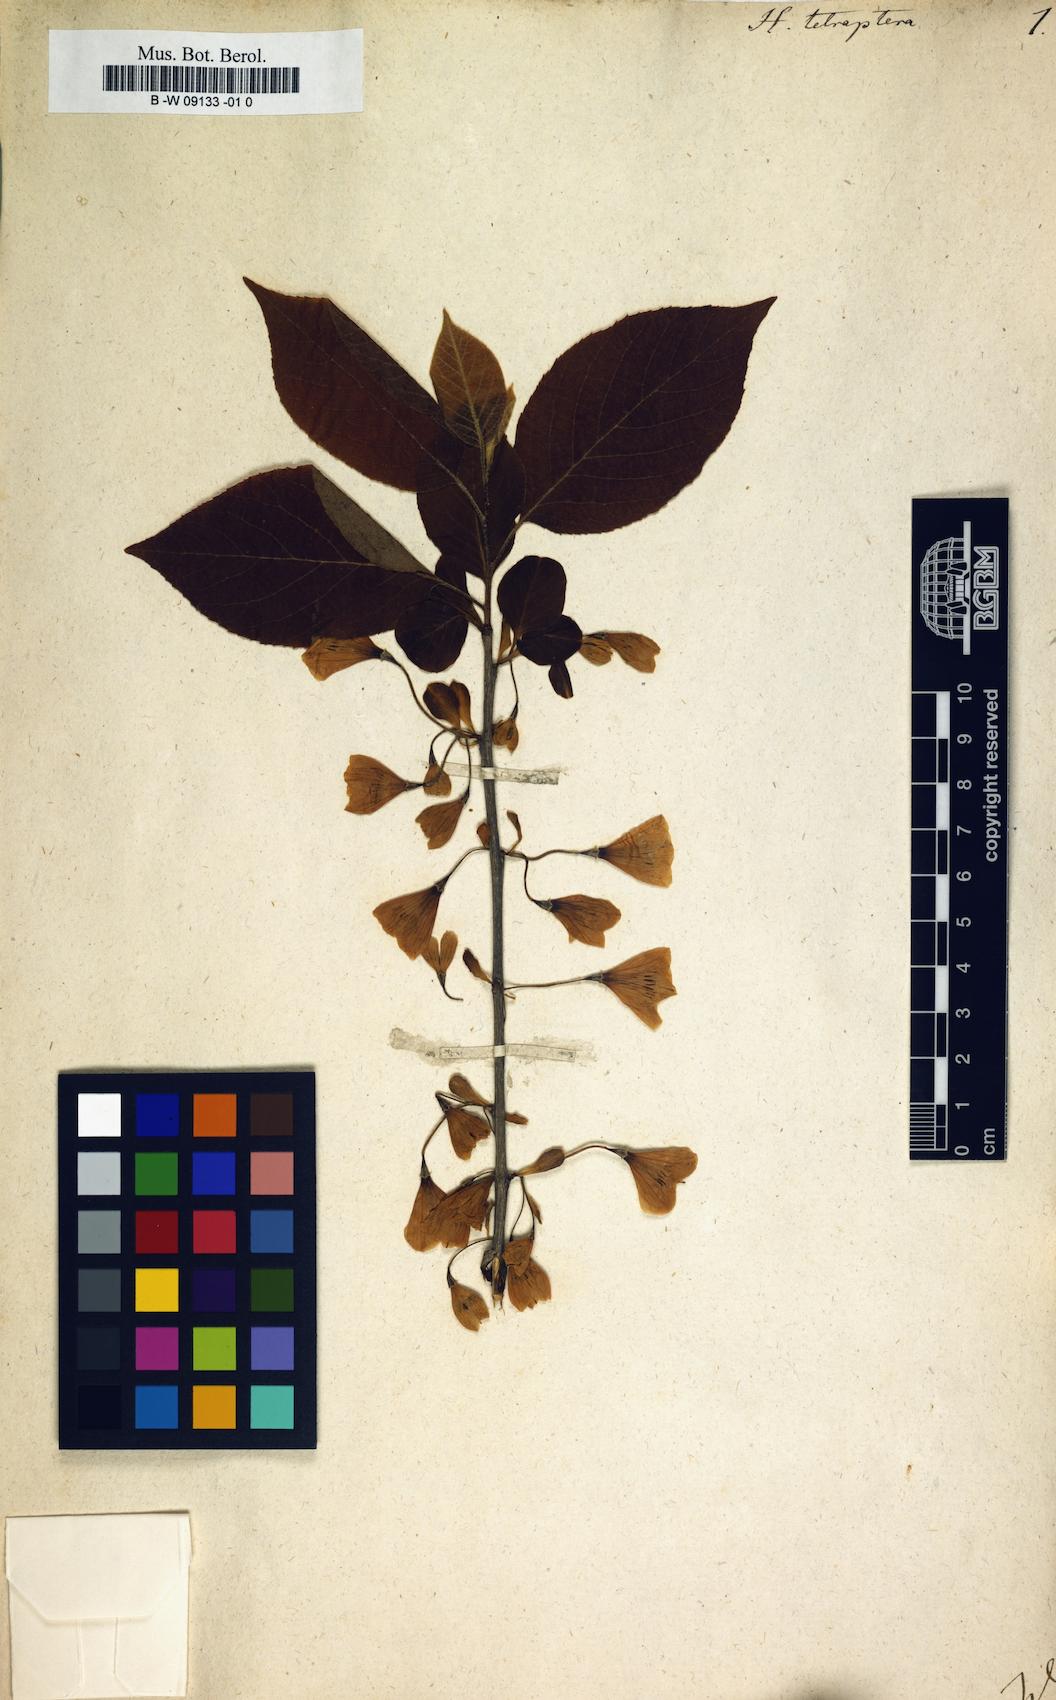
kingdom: Plantae
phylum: Tracheophyta
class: Magnoliopsida
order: Ericales
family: Styracaceae
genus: Halesia
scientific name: Halesia tetraptera
